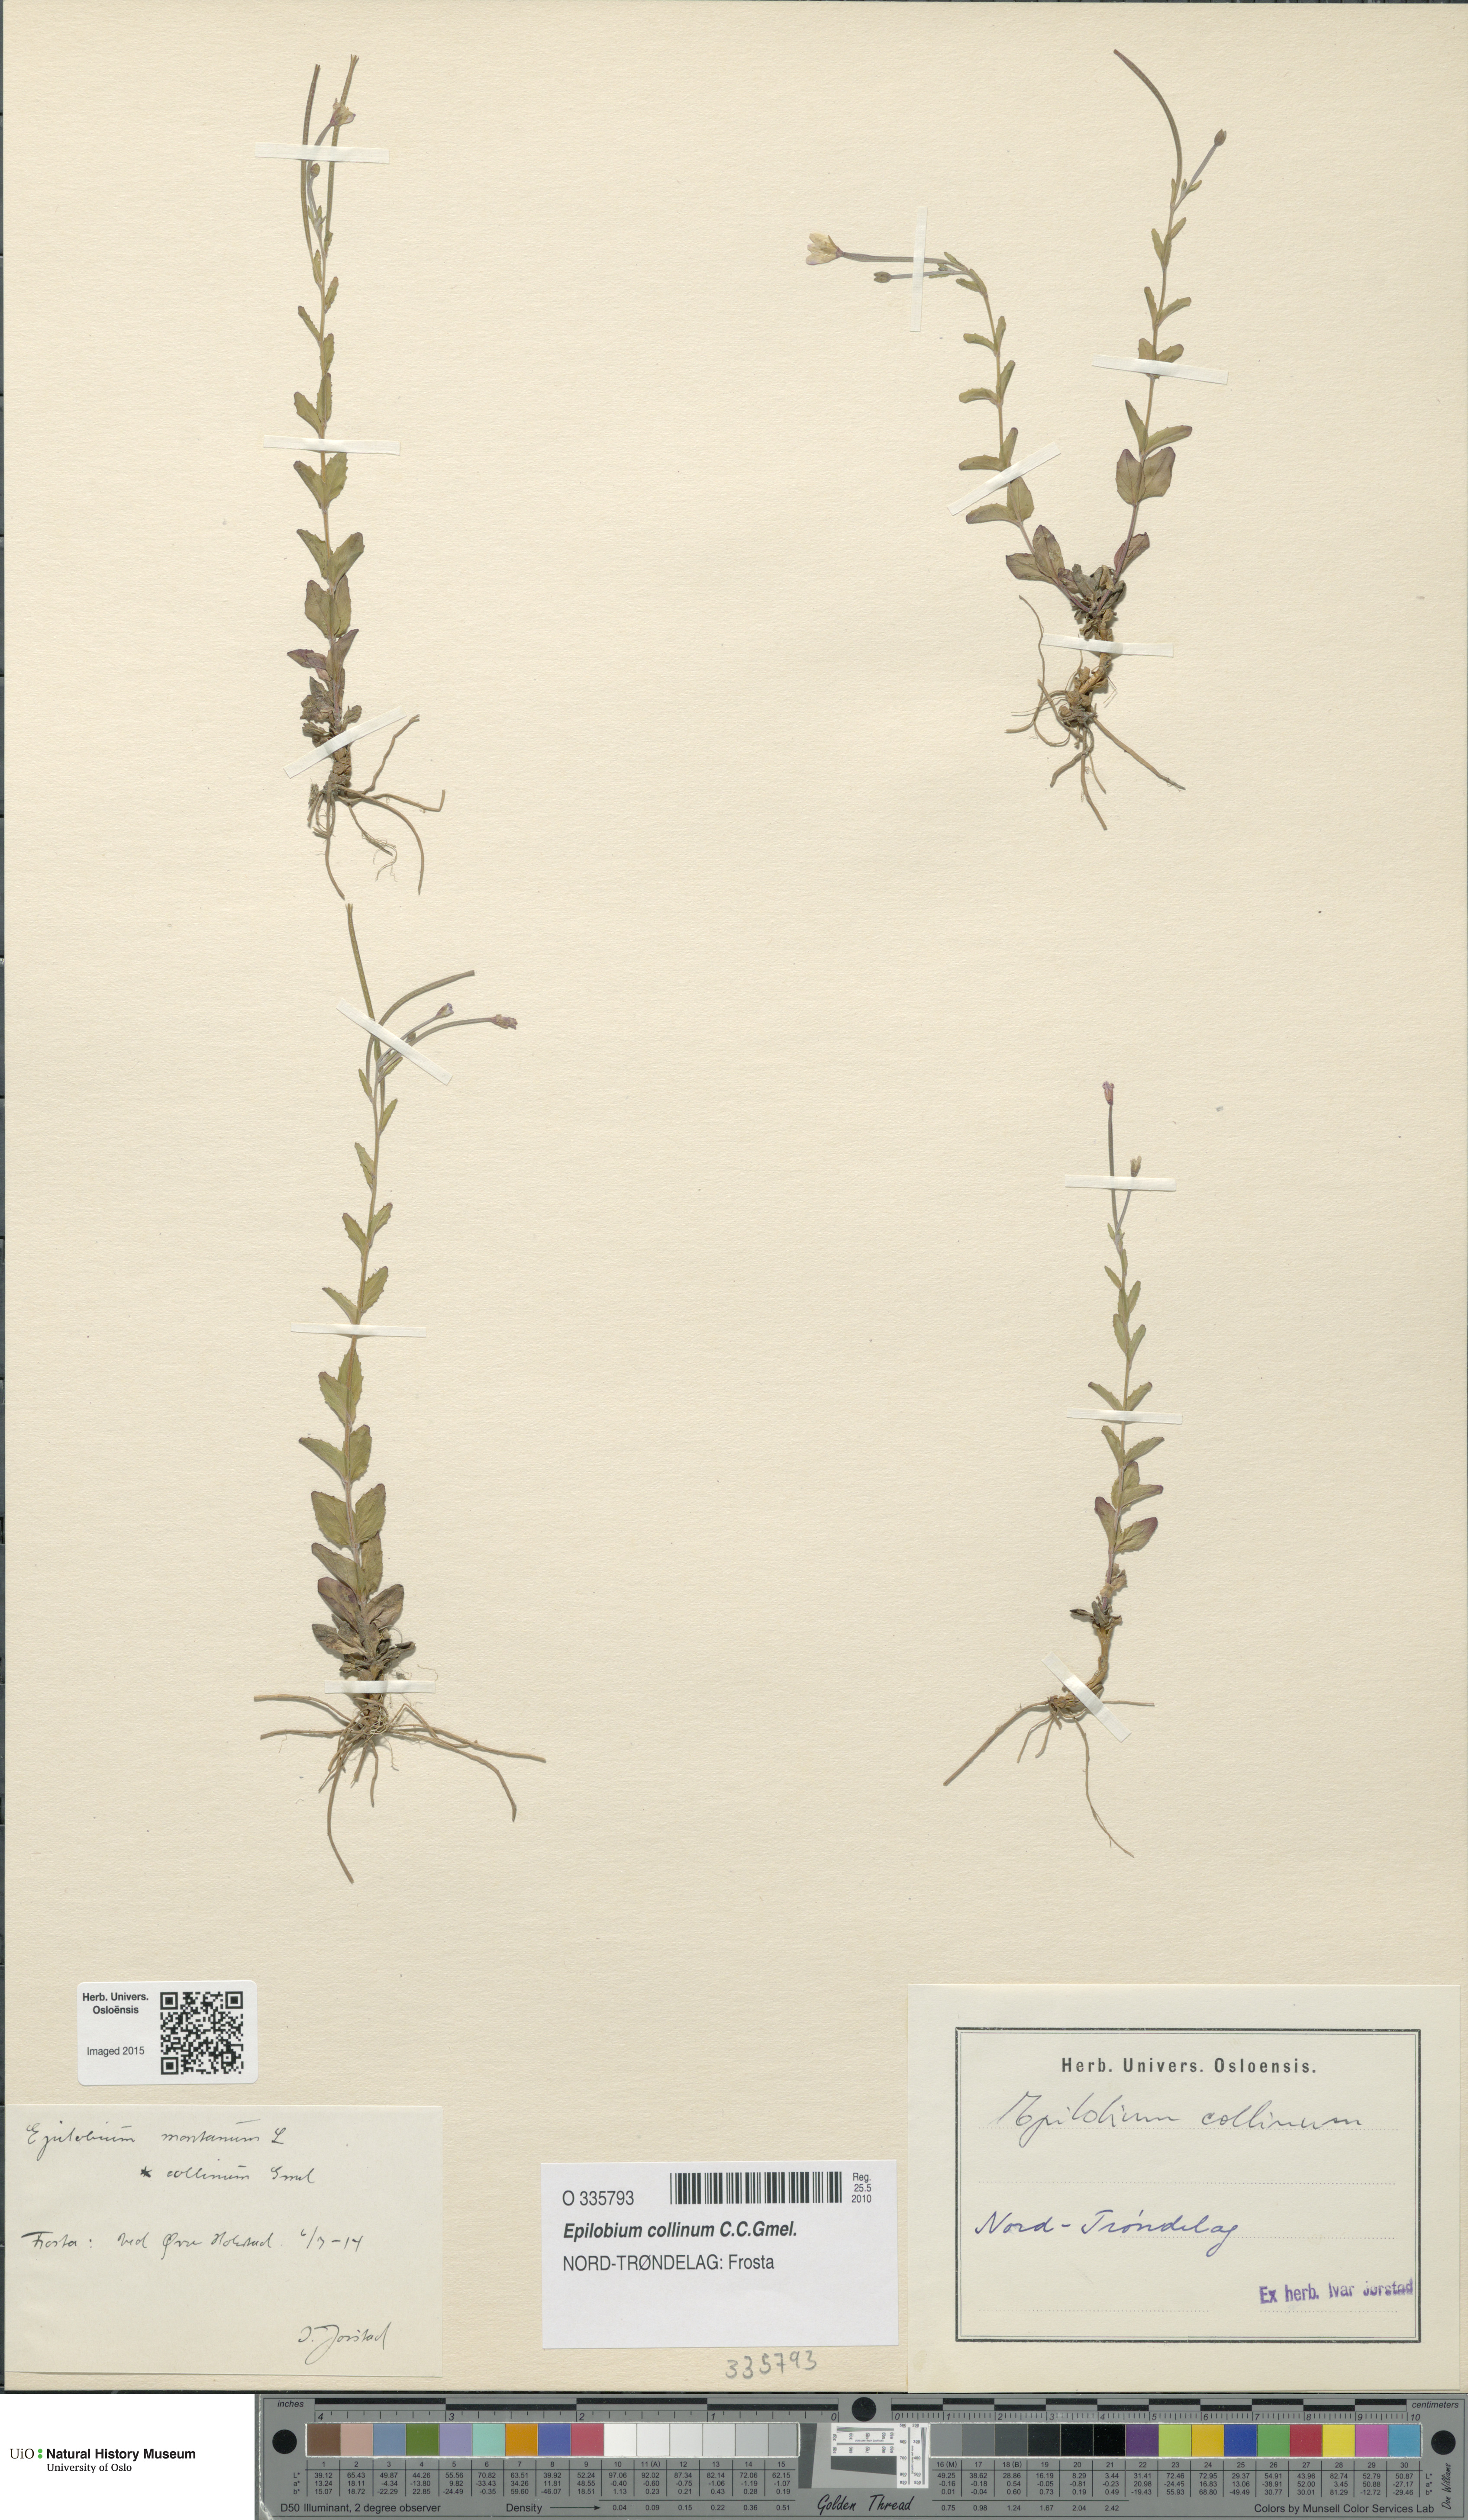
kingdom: Plantae
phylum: Tracheophyta
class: Magnoliopsida
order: Myrtales
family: Onagraceae
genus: Epilobium
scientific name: Epilobium collinum
